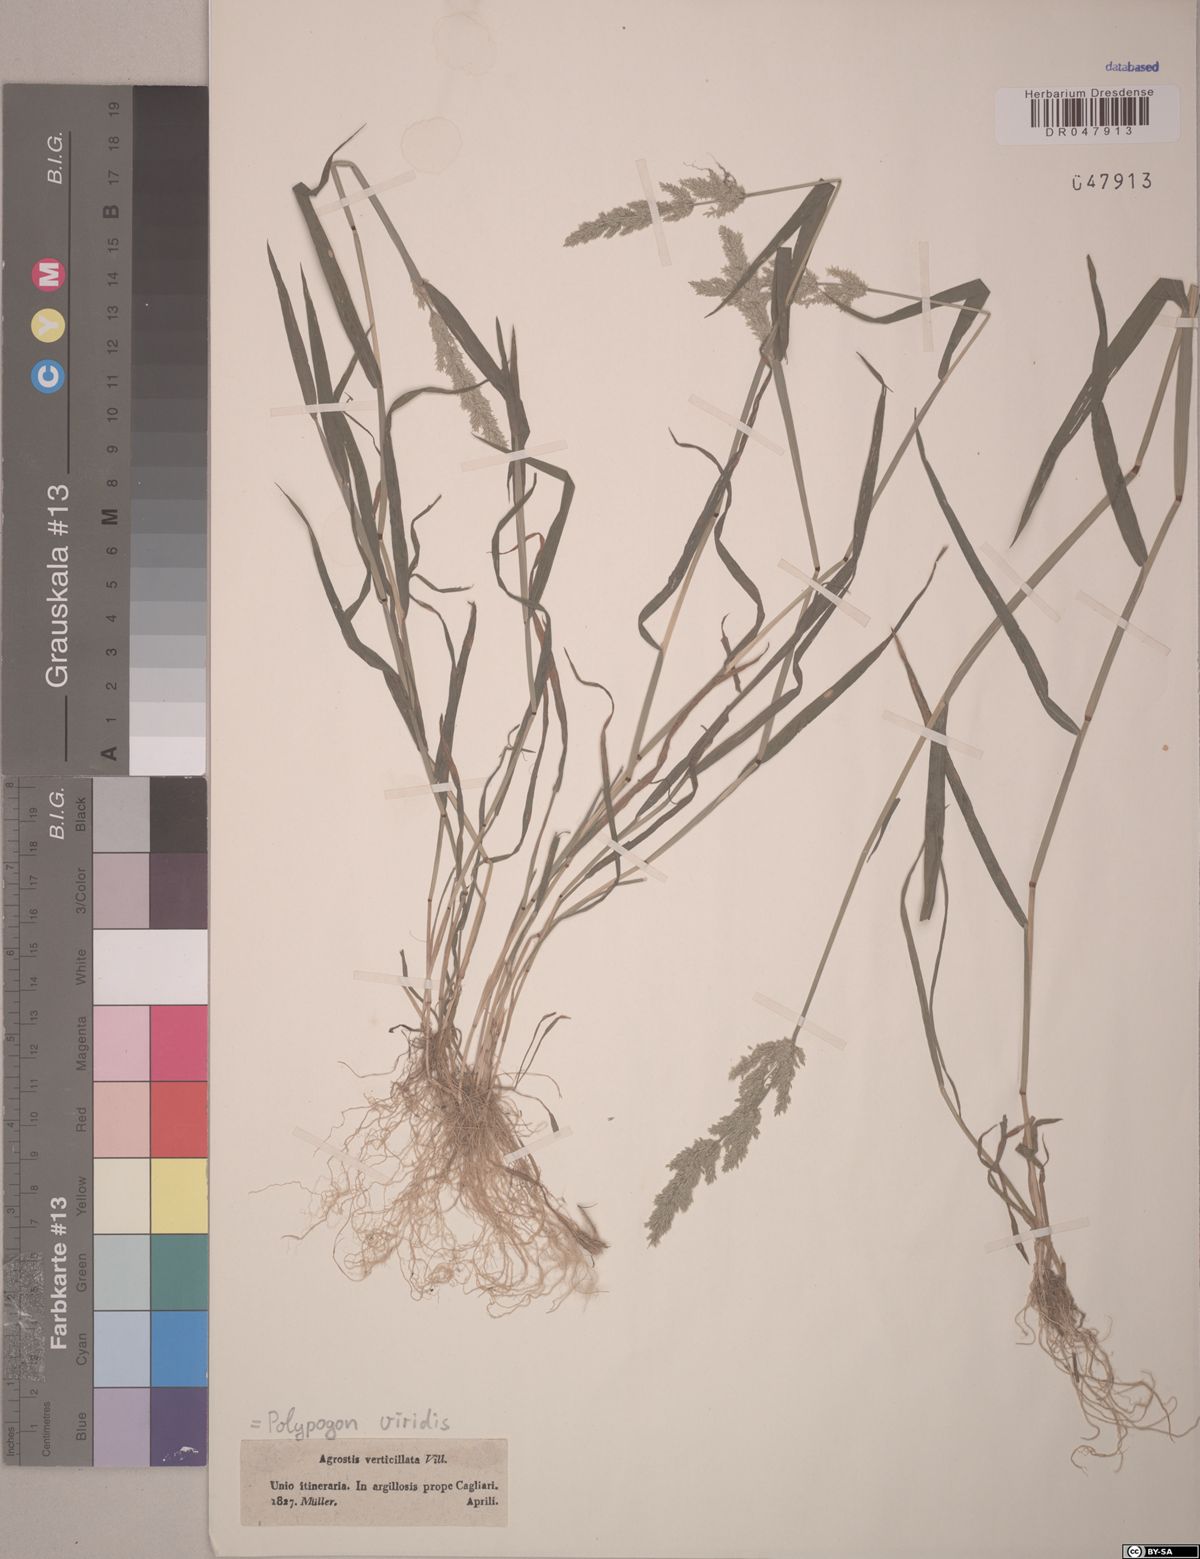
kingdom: Plantae
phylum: Tracheophyta
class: Liliopsida
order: Poales
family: Poaceae
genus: Polypogon
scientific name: Polypogon viridis
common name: Water bent
